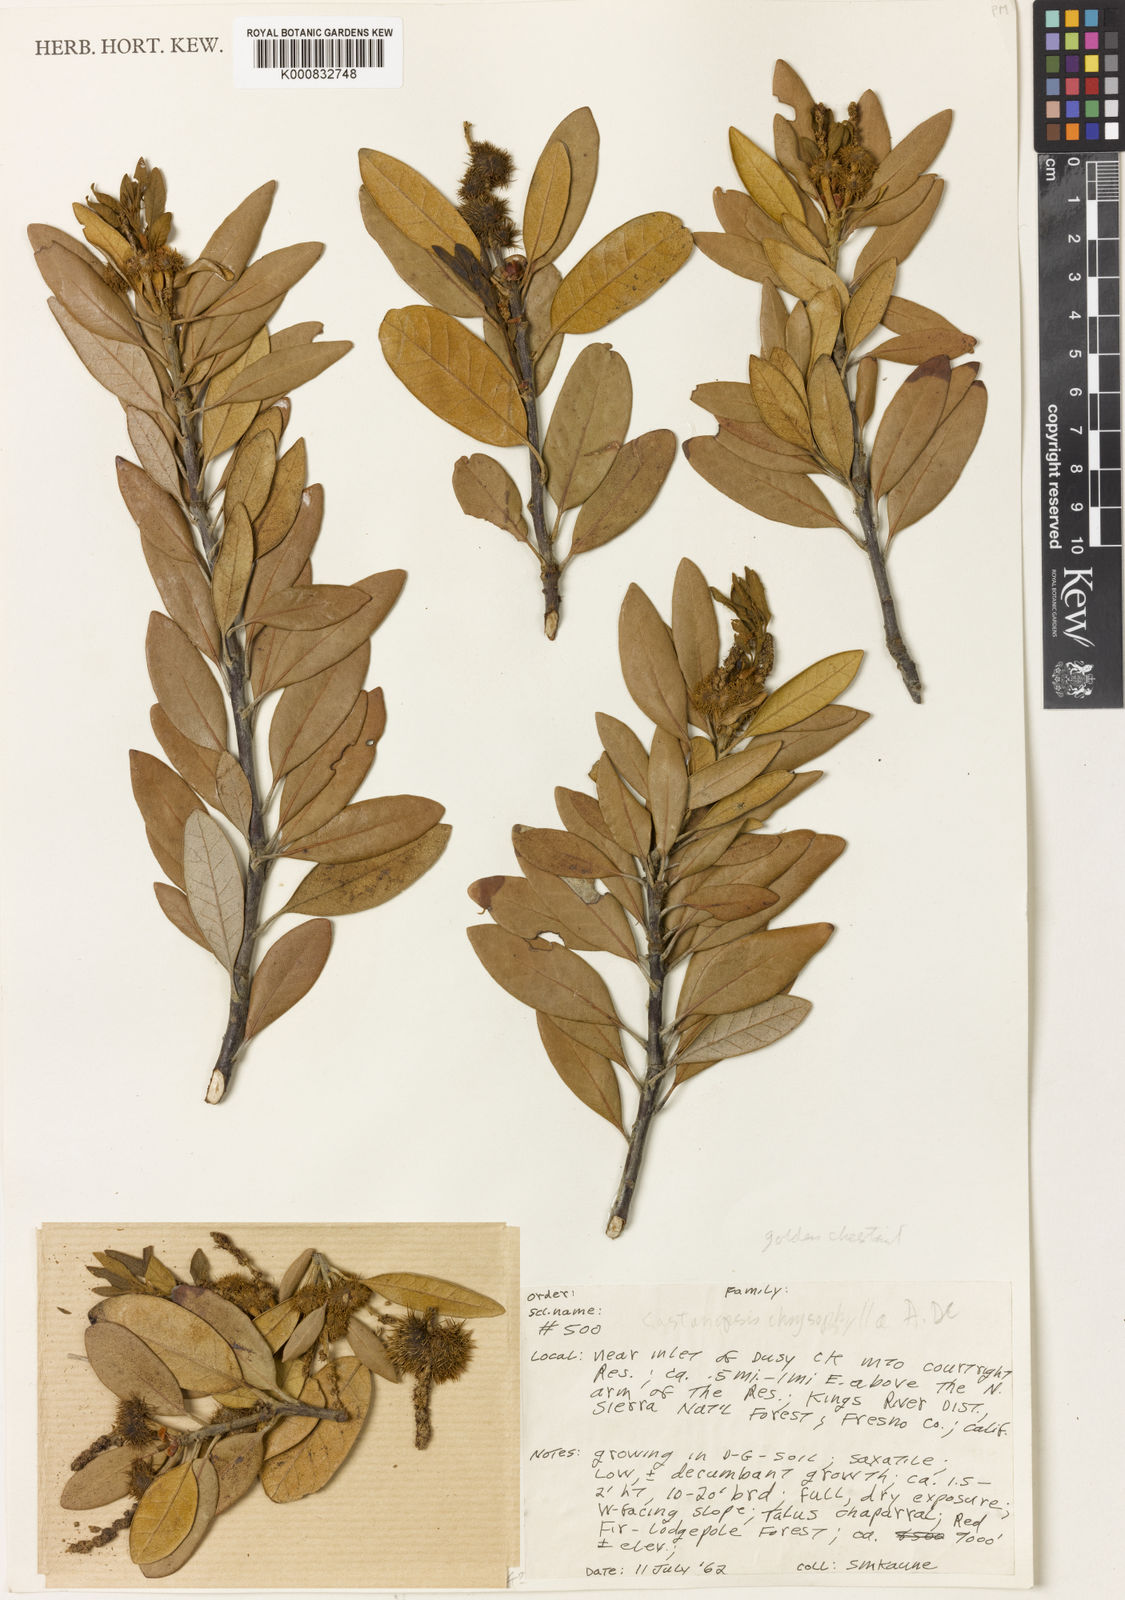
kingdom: Plantae
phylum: Tracheophyta
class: Magnoliopsida
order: Fagales
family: Fagaceae
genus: Chrysolepis
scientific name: Chrysolepis chrysophylla
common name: Giant chinquapin
